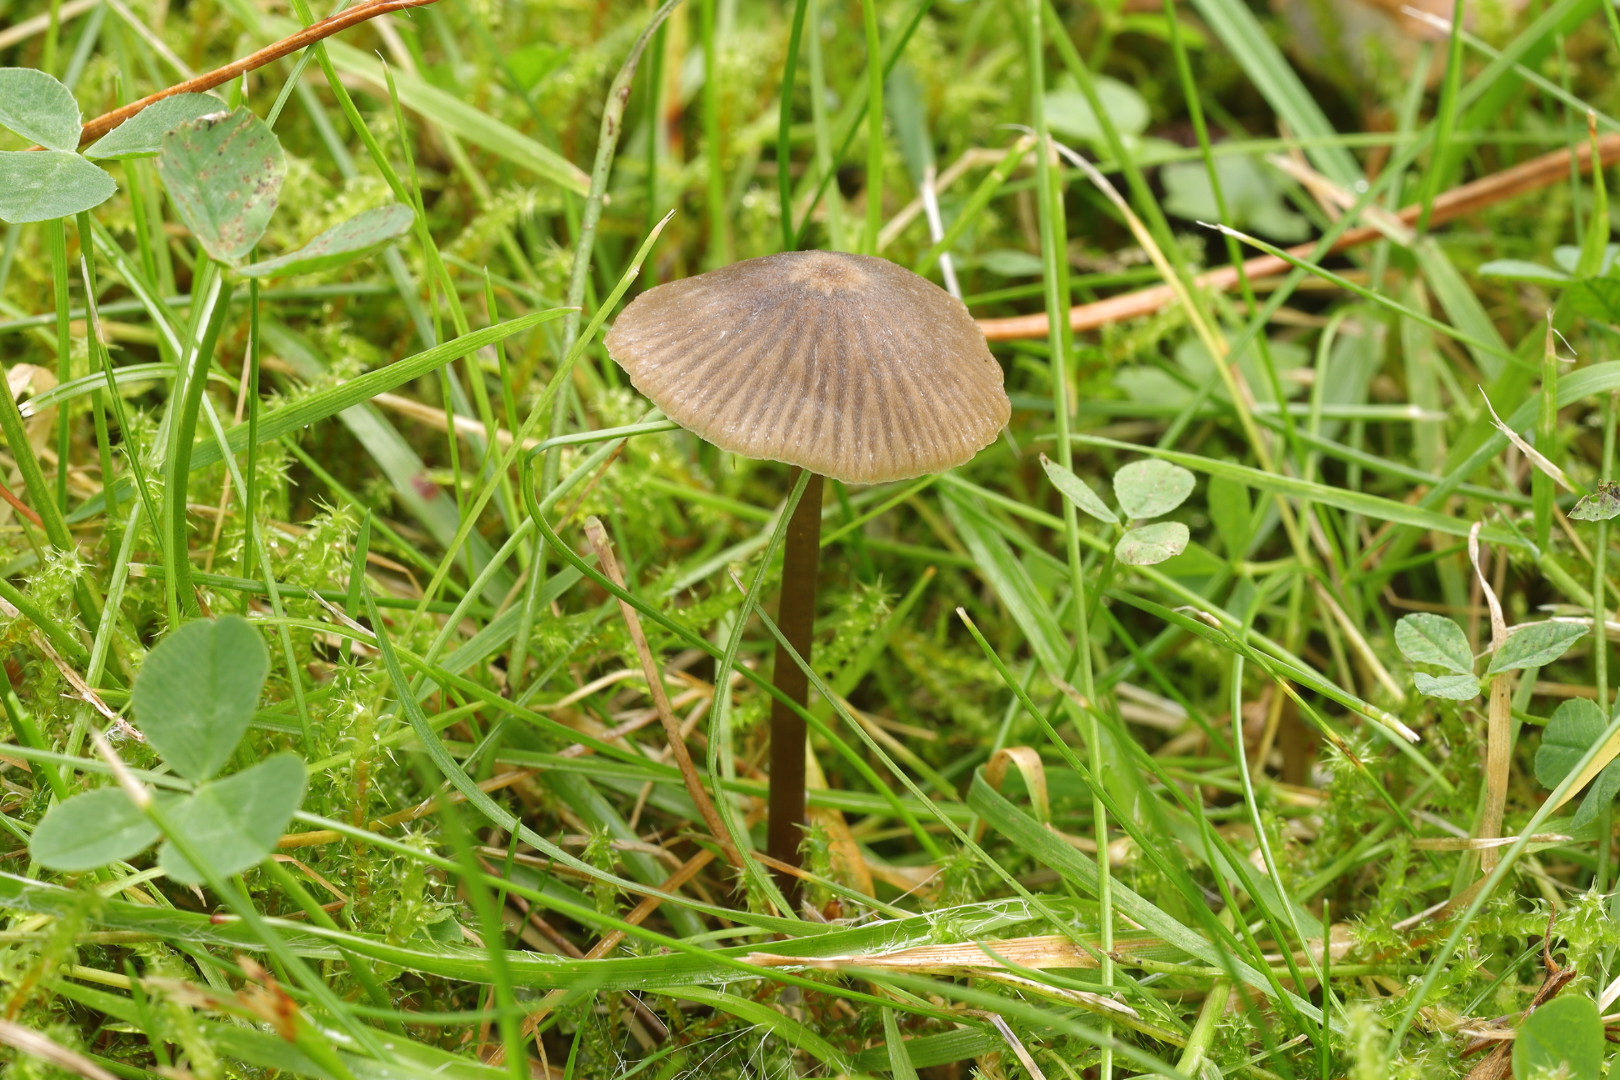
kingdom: Fungi
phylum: Basidiomycota
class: Agaricomycetes
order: Agaricales
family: Entolomataceae
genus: Entoloma
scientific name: Entoloma
